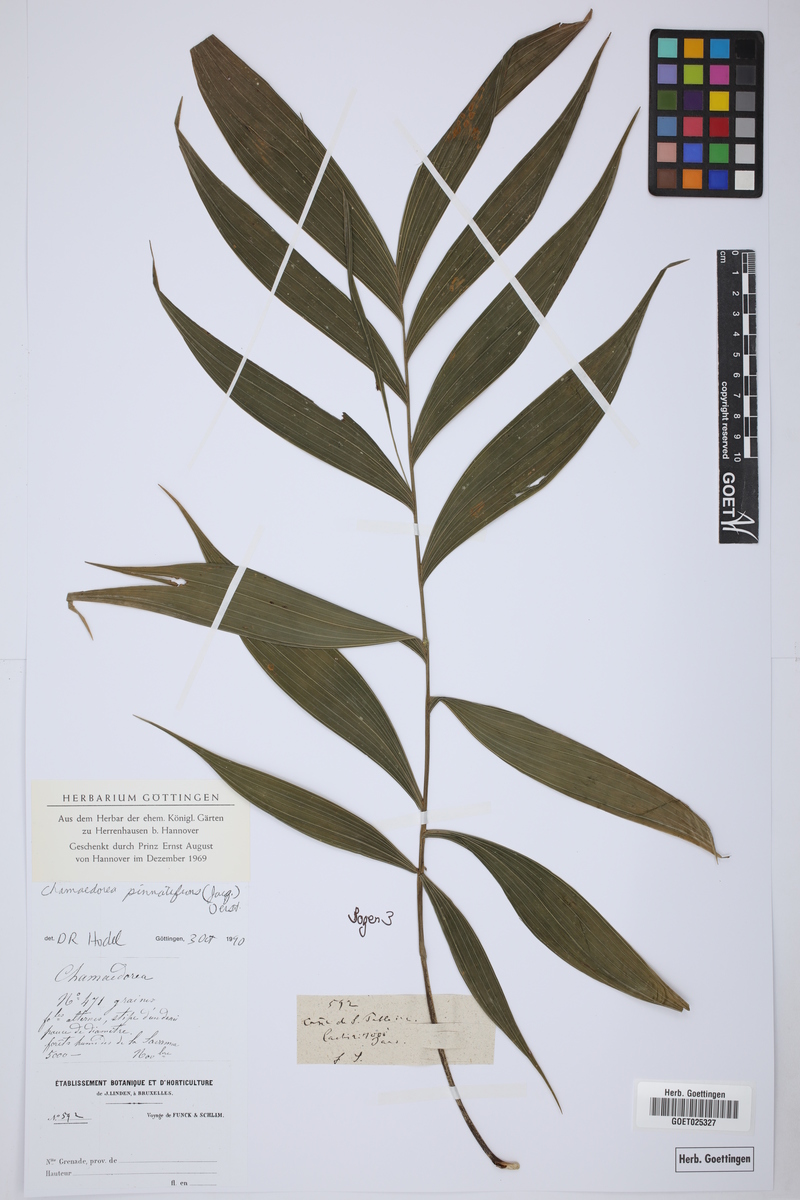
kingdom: Plantae
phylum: Tracheophyta
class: Liliopsida
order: Arecales
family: Arecaceae
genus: Chamaedorea
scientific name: Chamaedorea pinnatifrons
